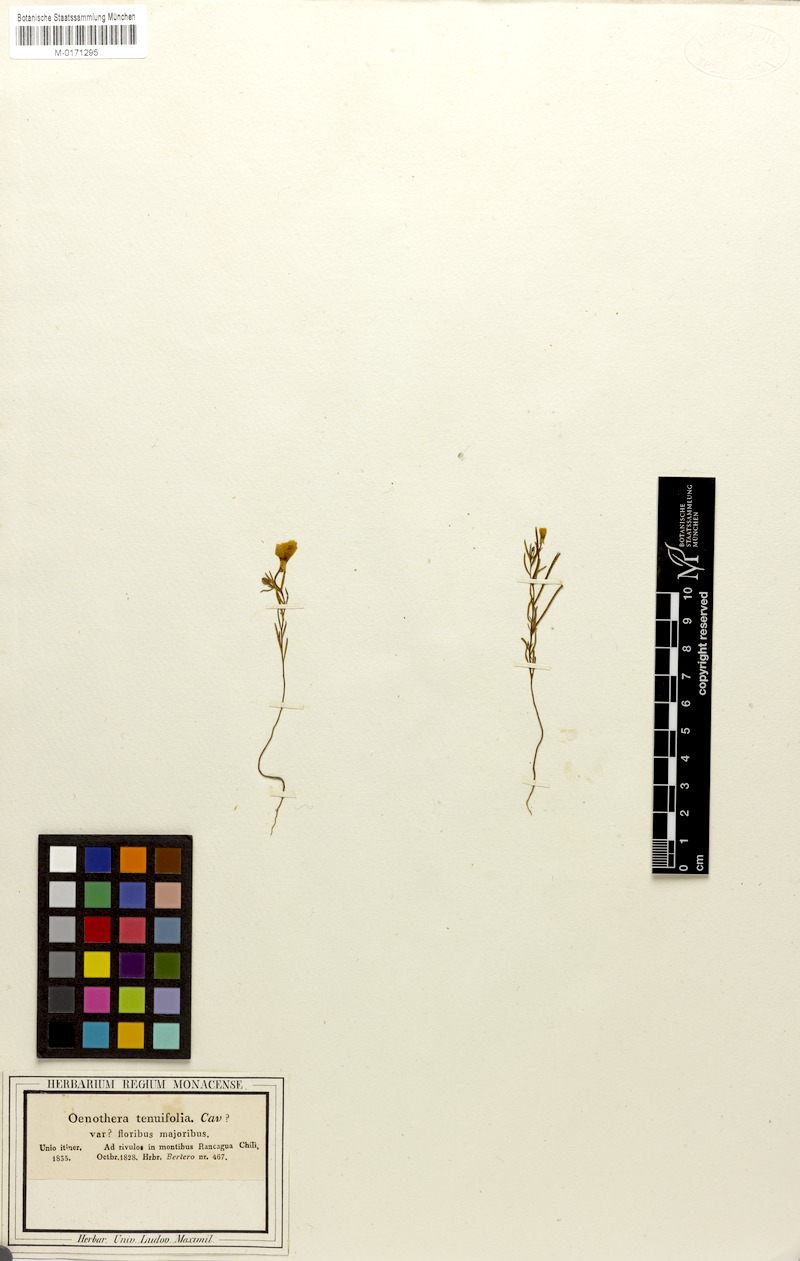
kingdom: Plantae
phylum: Tracheophyta
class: Magnoliopsida
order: Myrtales
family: Onagraceae
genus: Clarkia
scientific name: Clarkia tenella
